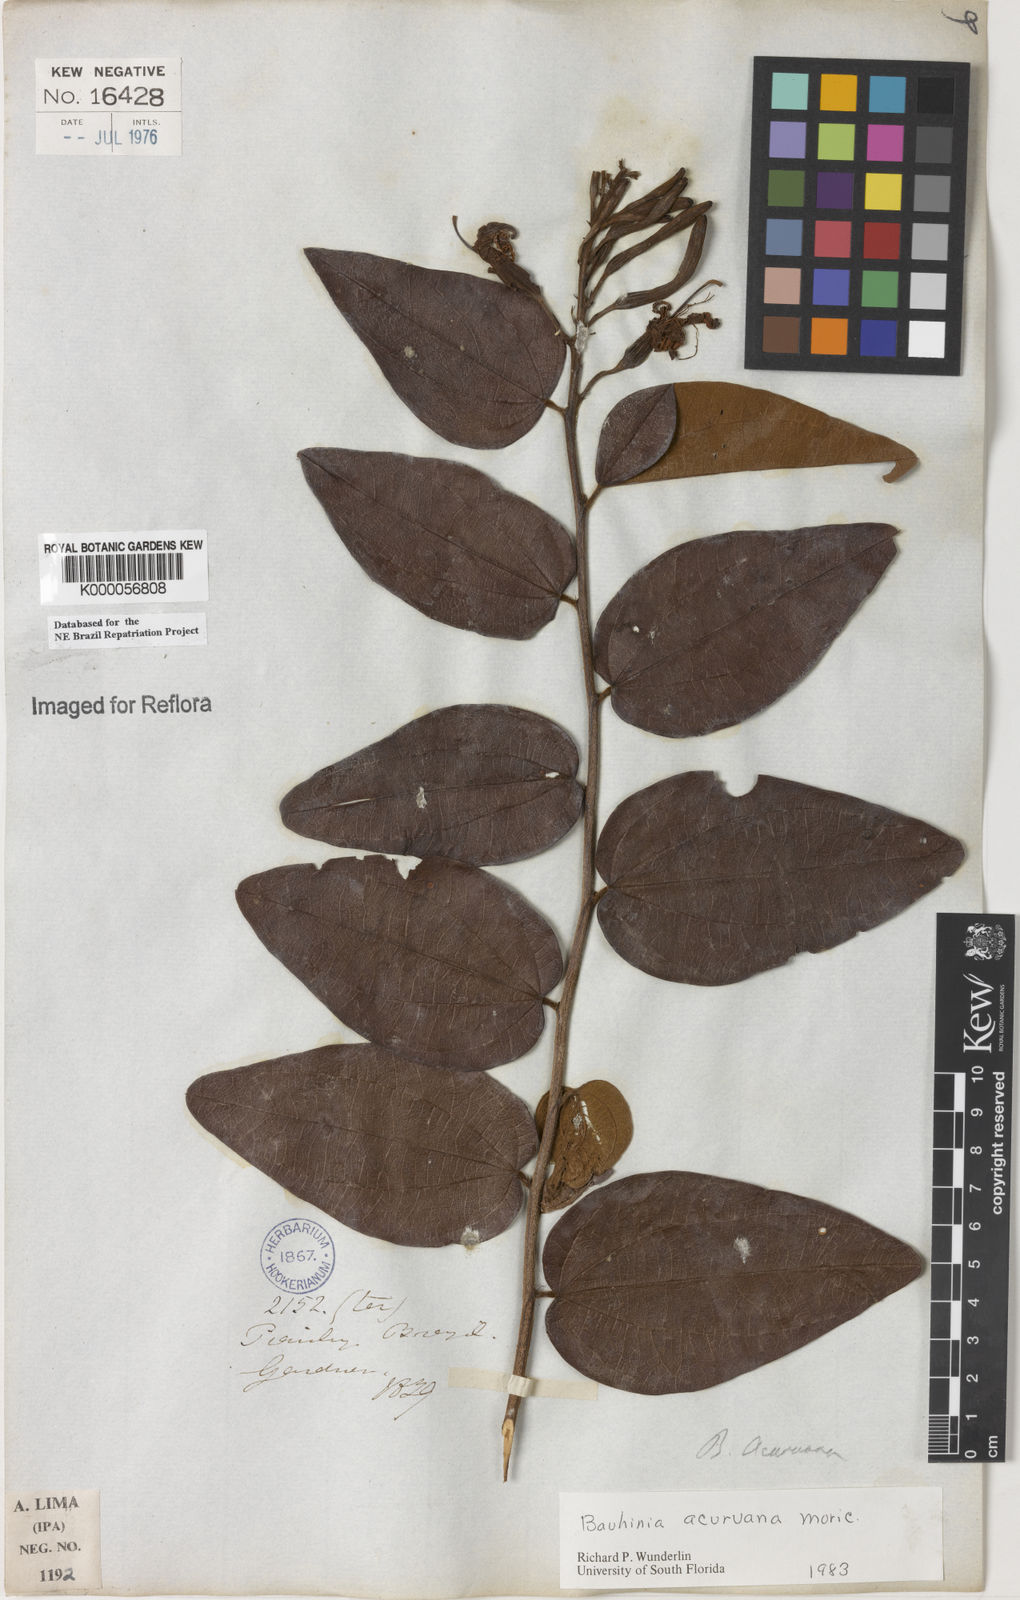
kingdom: Plantae
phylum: Tracheophyta
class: Magnoliopsida
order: Fabales
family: Fabaceae
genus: Bauhinia
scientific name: Bauhinia acuruana
